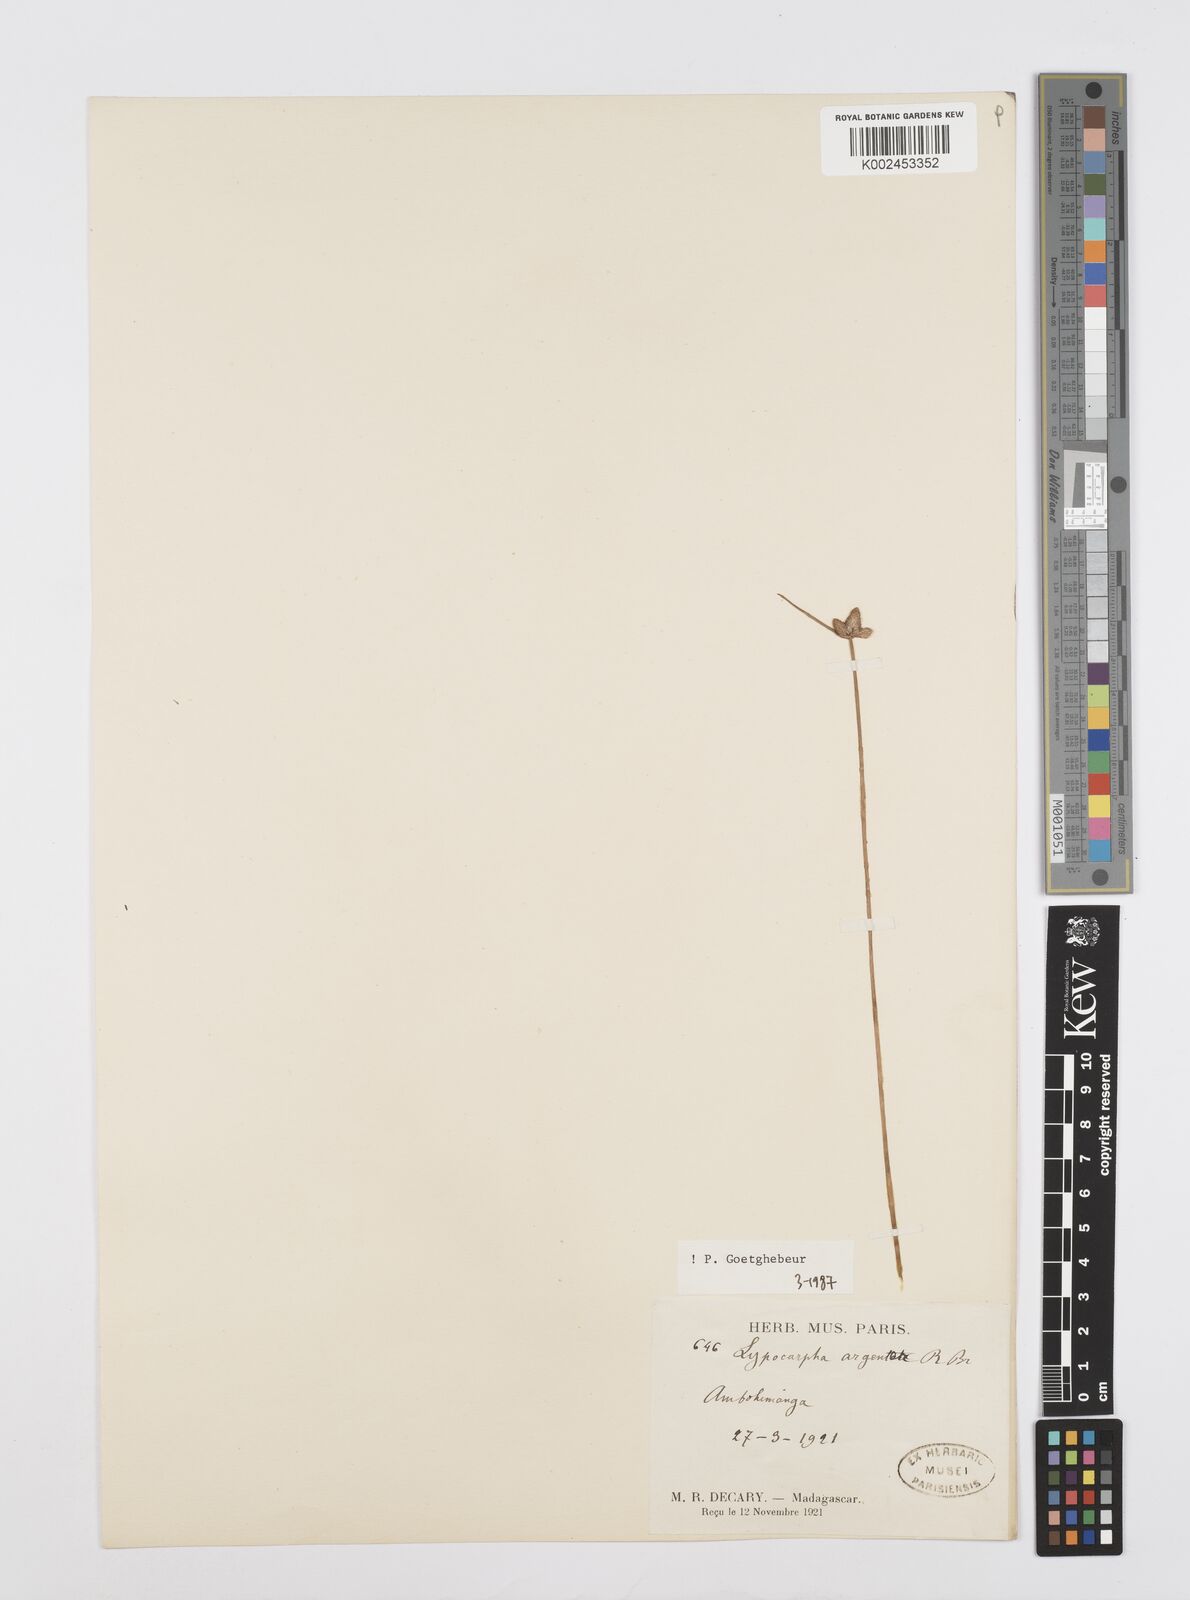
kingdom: Plantae
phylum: Tracheophyta
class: Liliopsida
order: Poales
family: Cyperaceae
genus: Cyperus
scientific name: Cyperus
